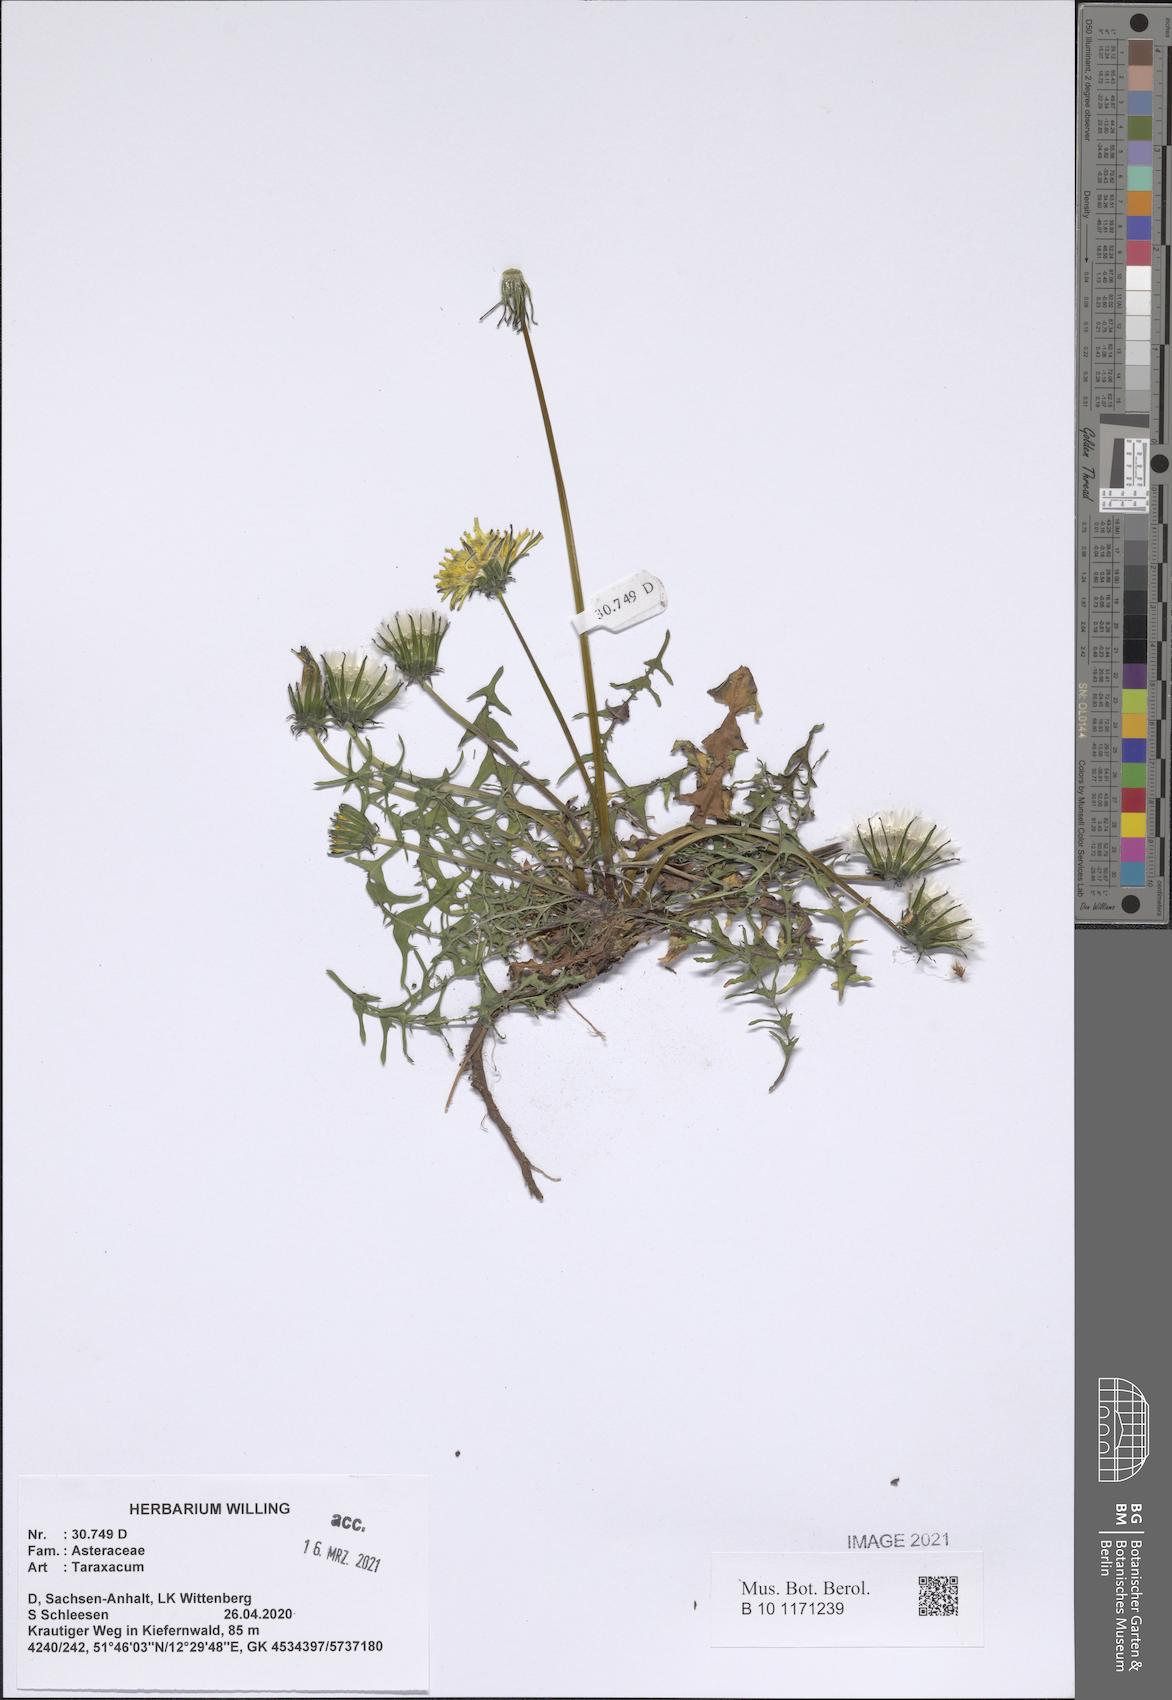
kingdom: Plantae
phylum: Tracheophyta
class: Magnoliopsida
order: Asterales
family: Asteraceae
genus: Taraxacum
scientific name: Taraxacum
